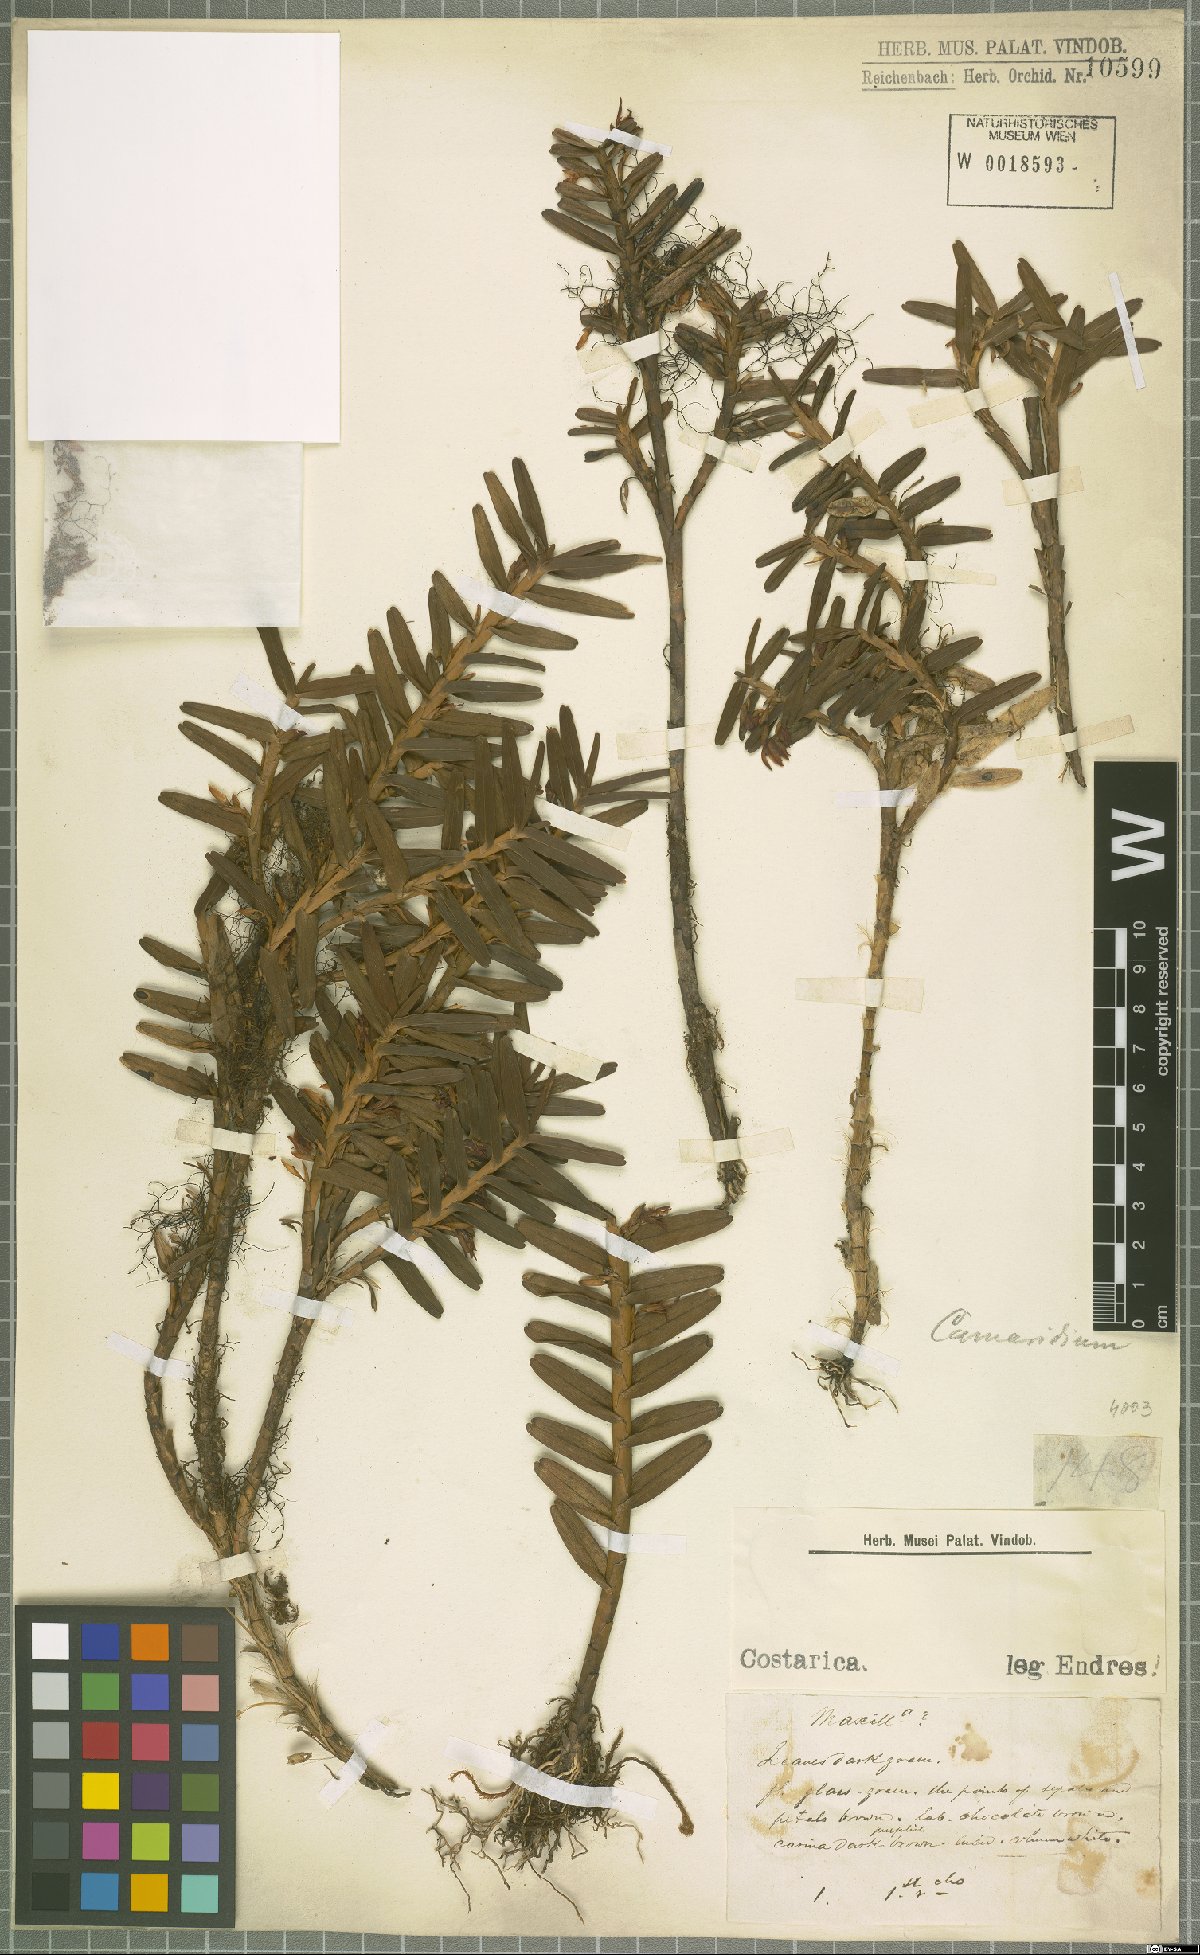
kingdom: Plantae
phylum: Tracheophyta
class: Liliopsida
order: Asparagales
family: Orchidaceae
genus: Maxillaria
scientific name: Maxillaria
